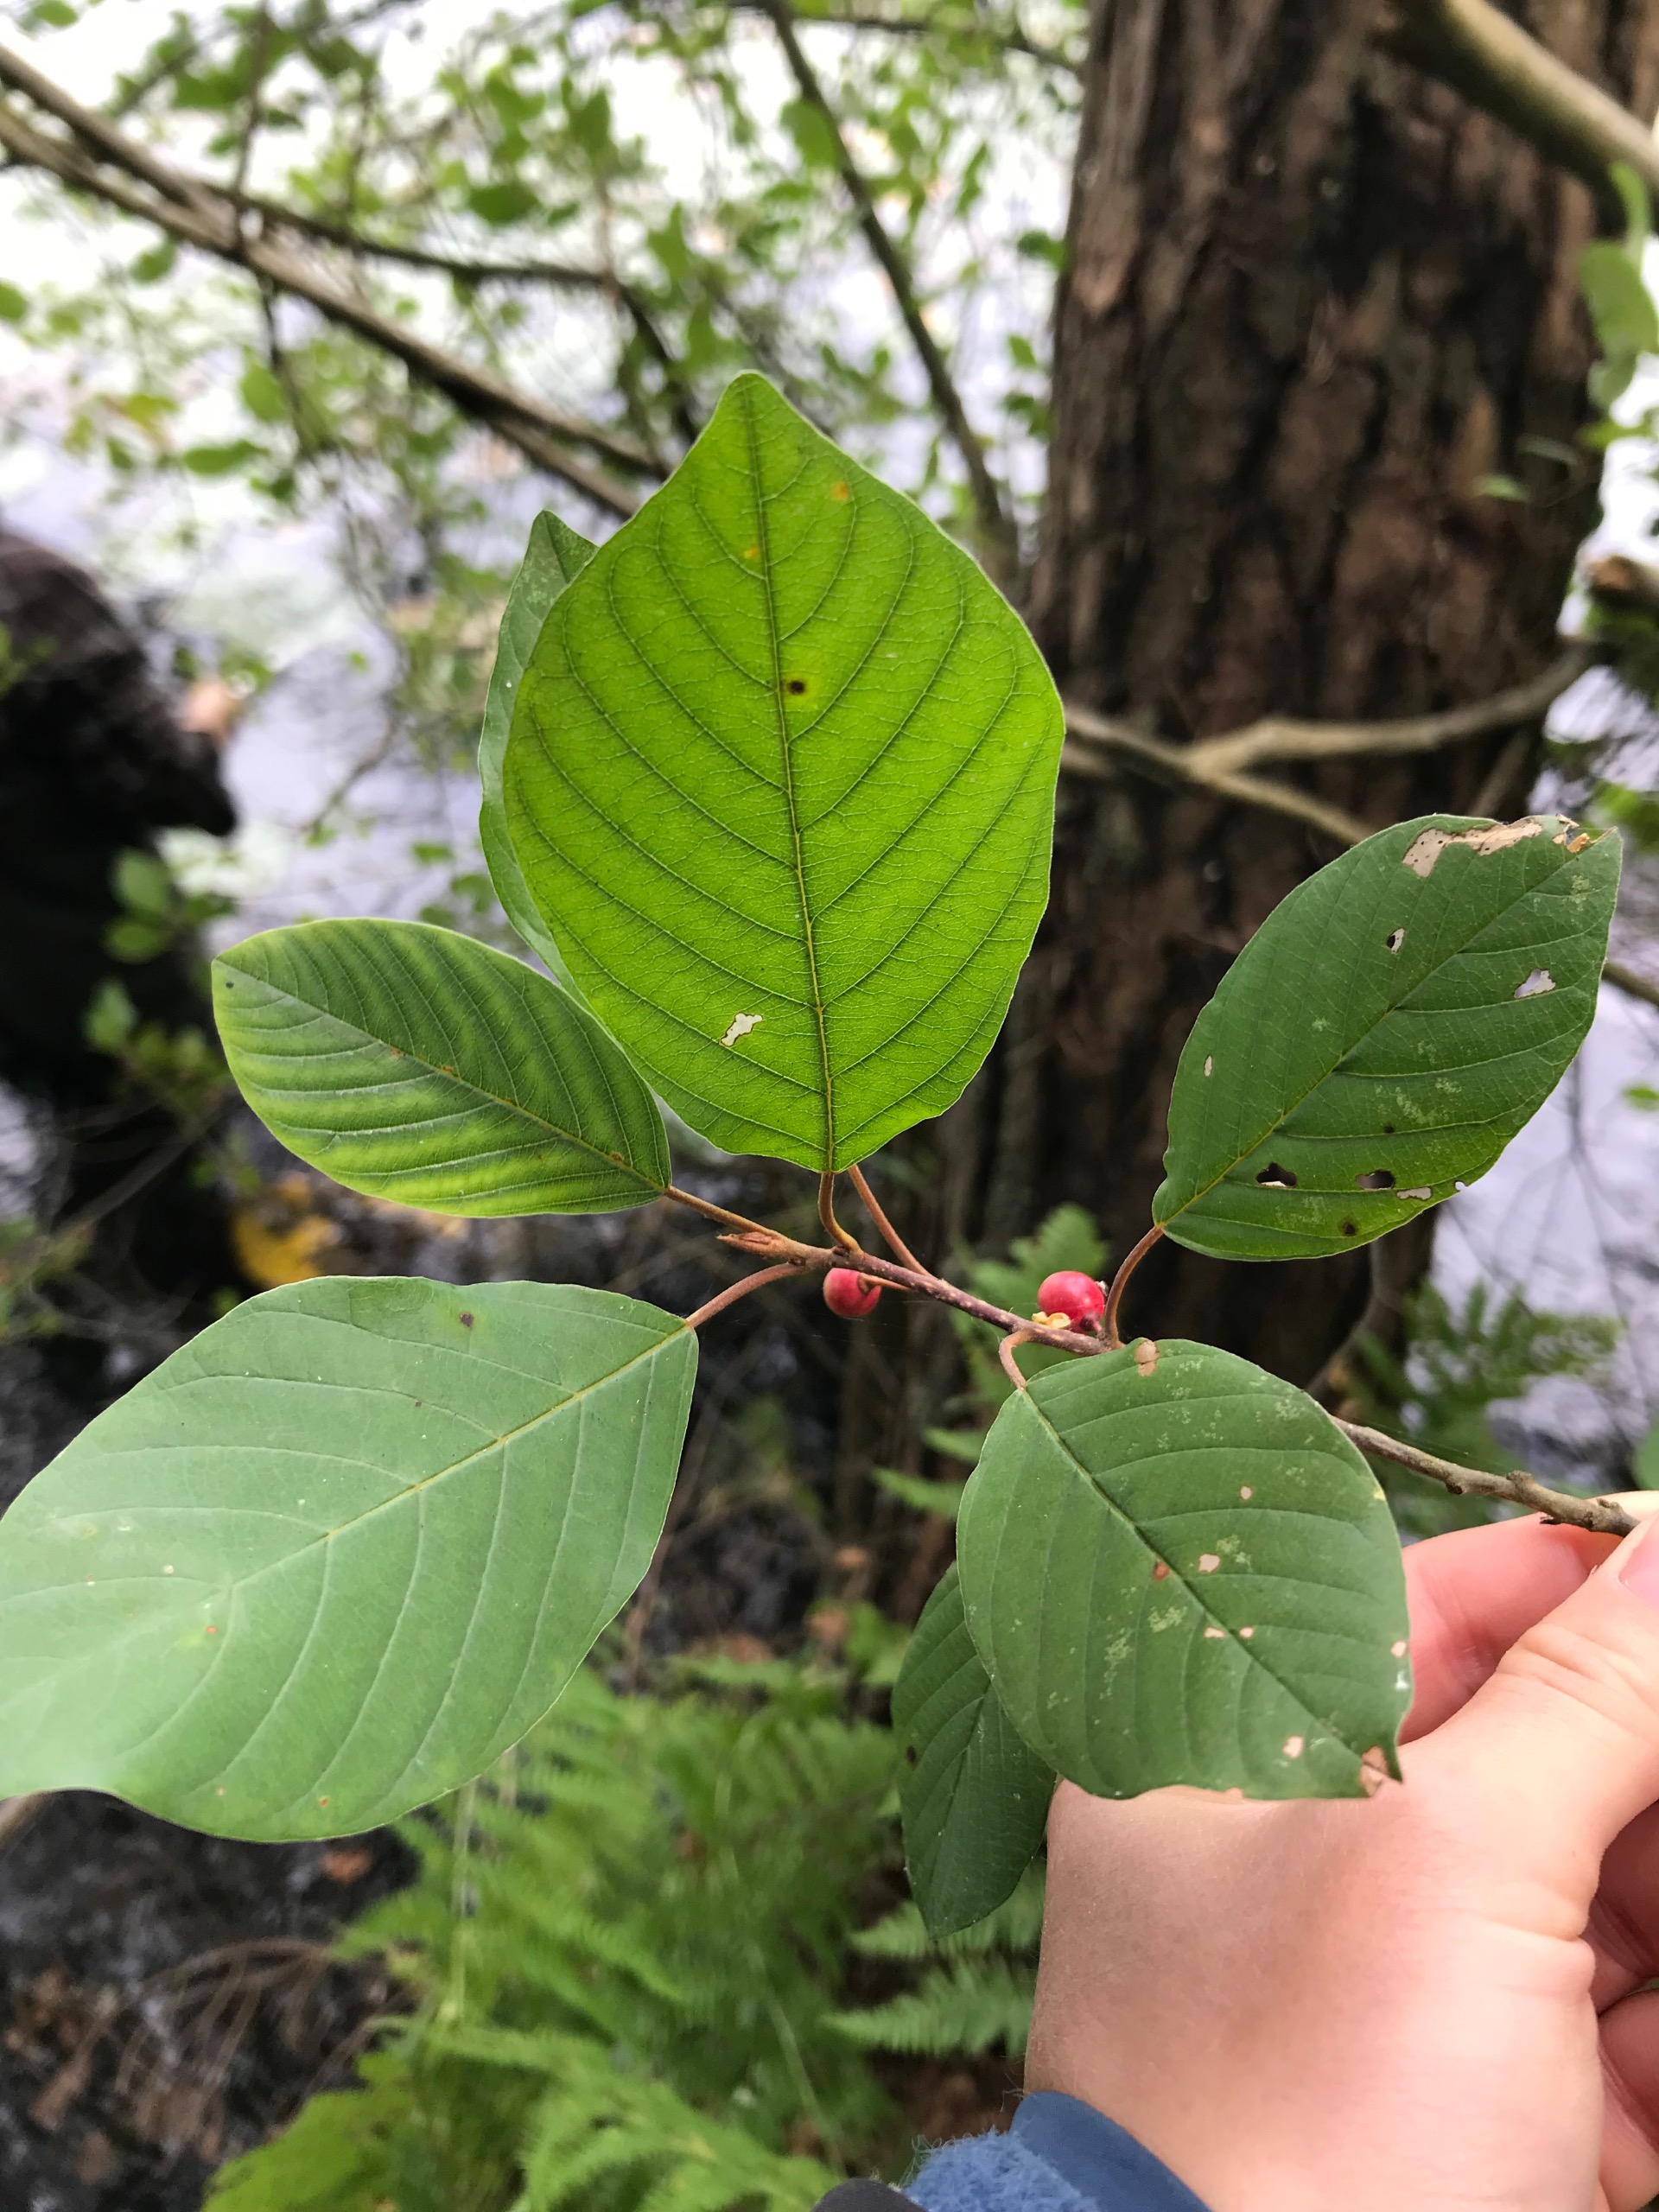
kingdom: Plantae
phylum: Tracheophyta
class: Magnoliopsida
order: Rosales
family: Rhamnaceae
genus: Frangula
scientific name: Frangula alnus
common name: Tørst
